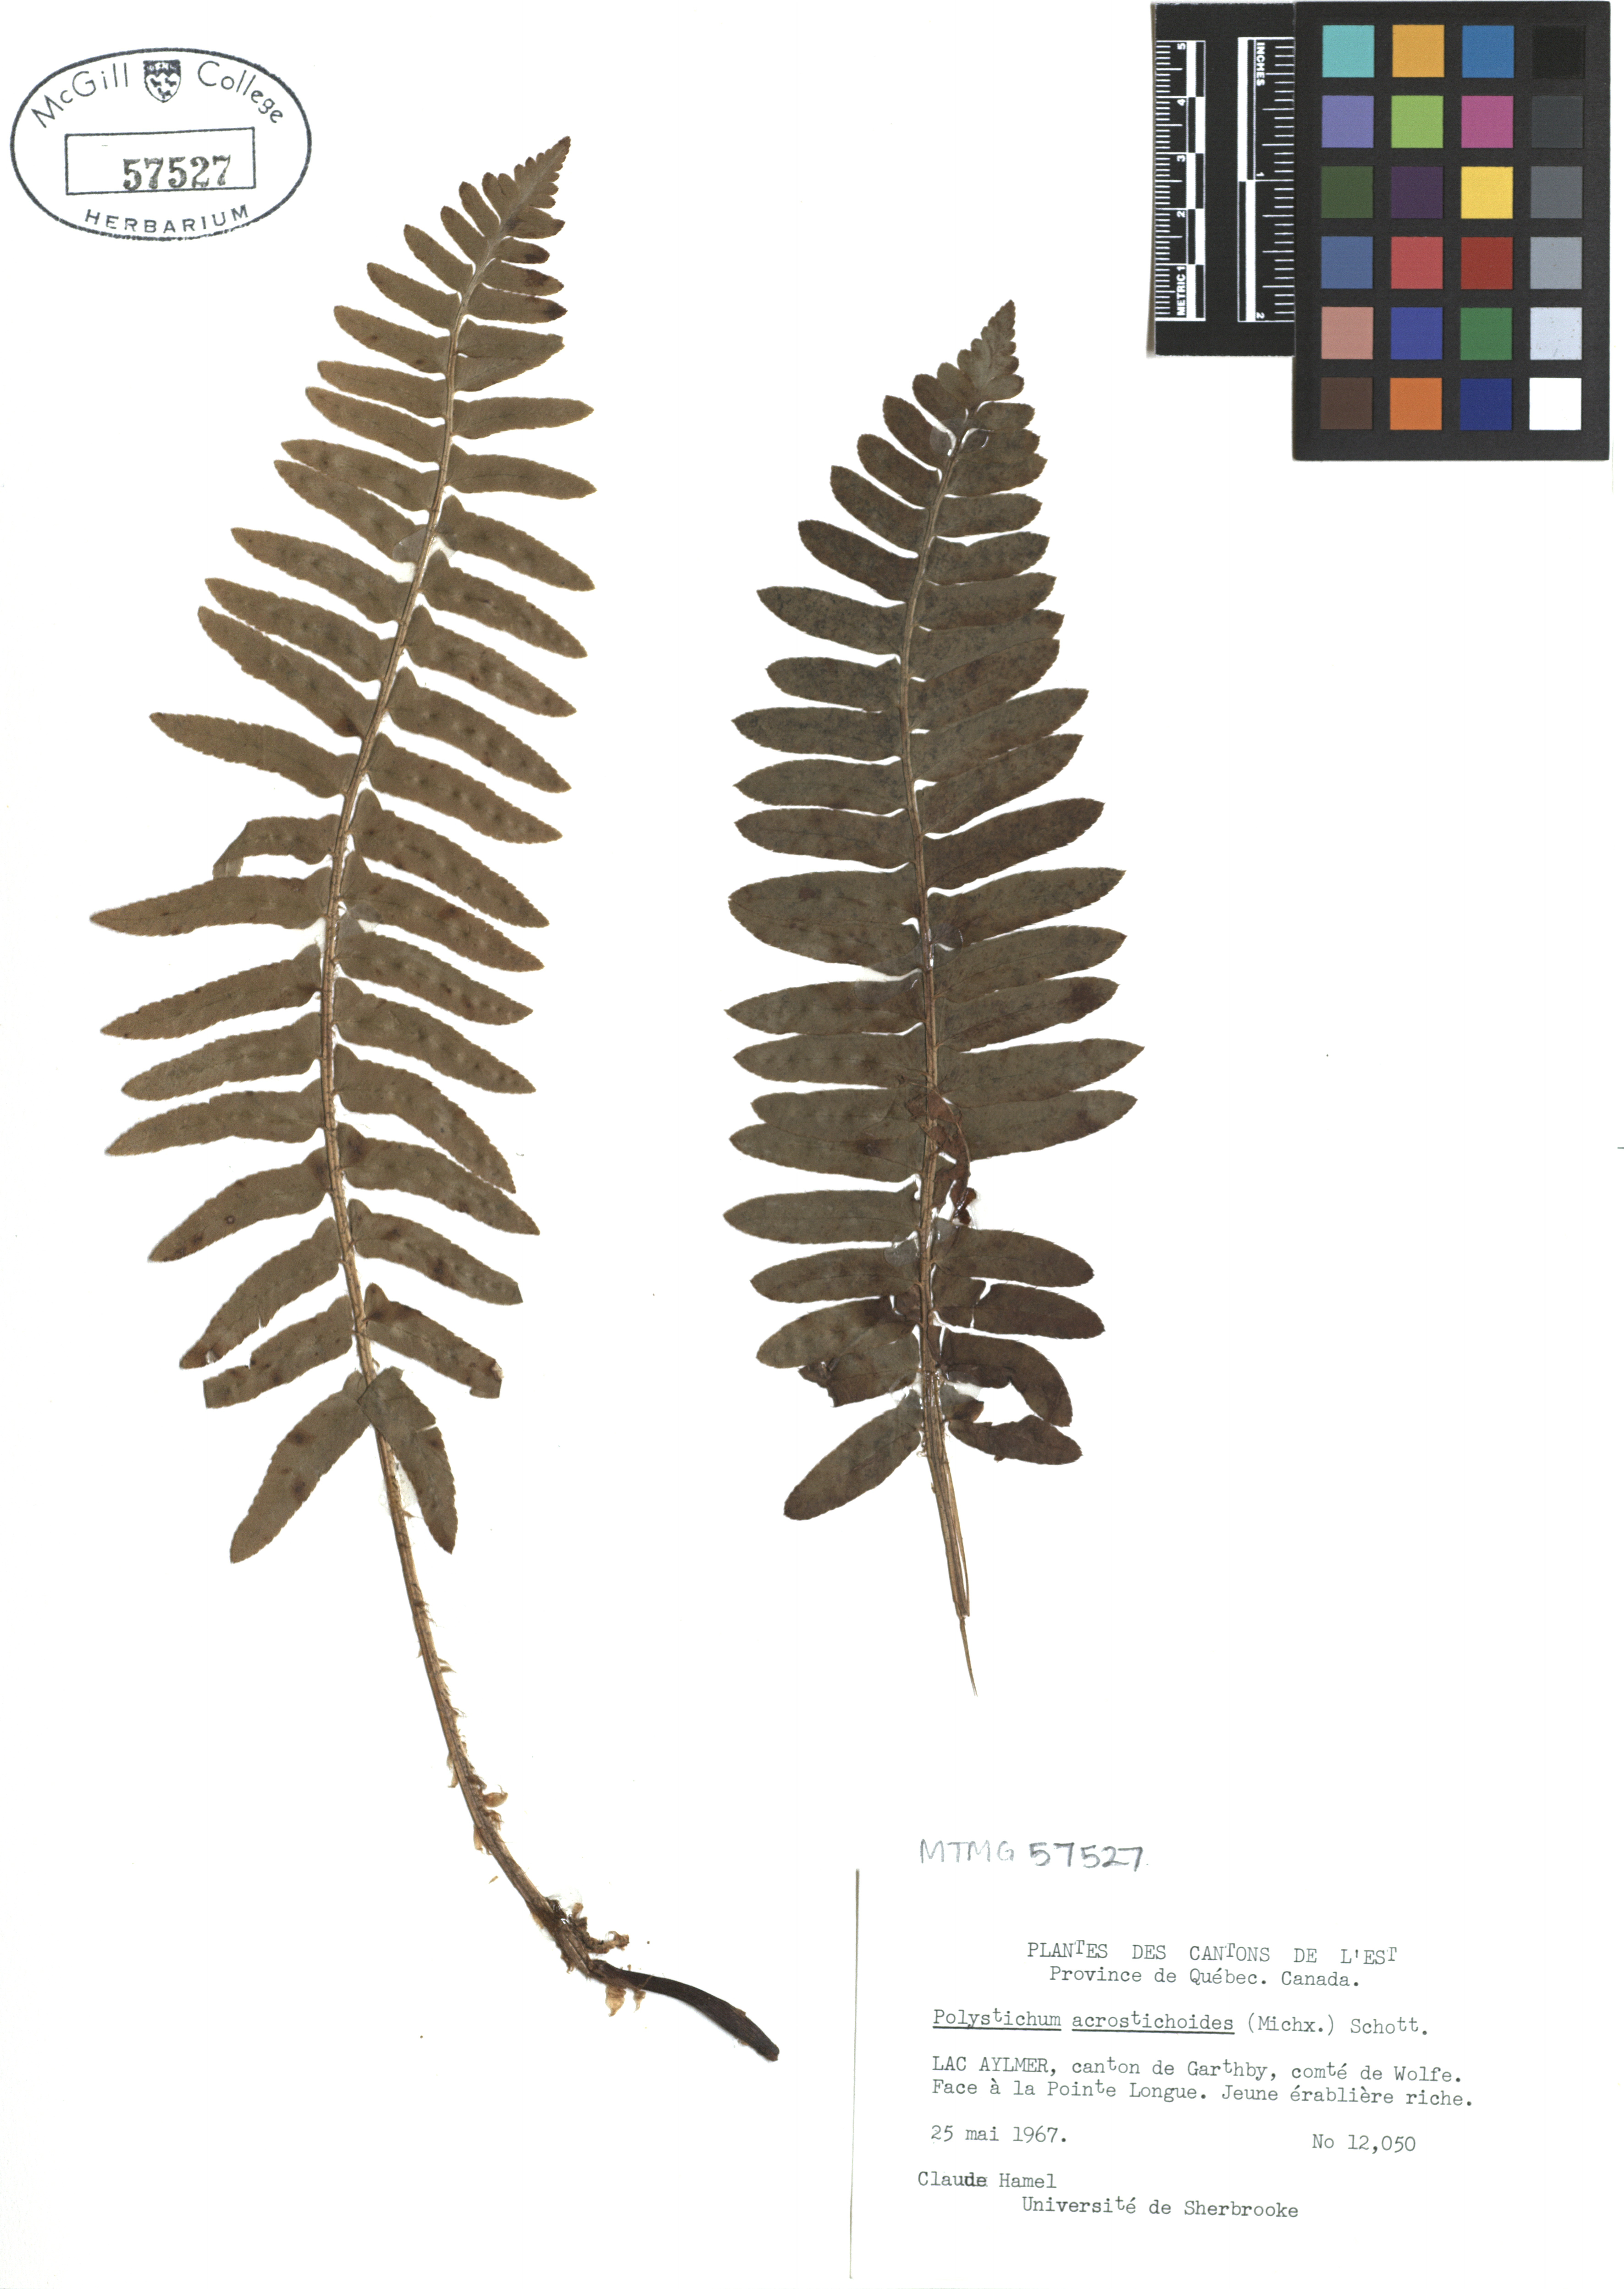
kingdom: Plantae
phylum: Tracheophyta
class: Polypodiopsida
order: Polypodiales
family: Dryopteridaceae
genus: Polystichum
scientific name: Polystichum acrostichoides
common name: Christmas fern
